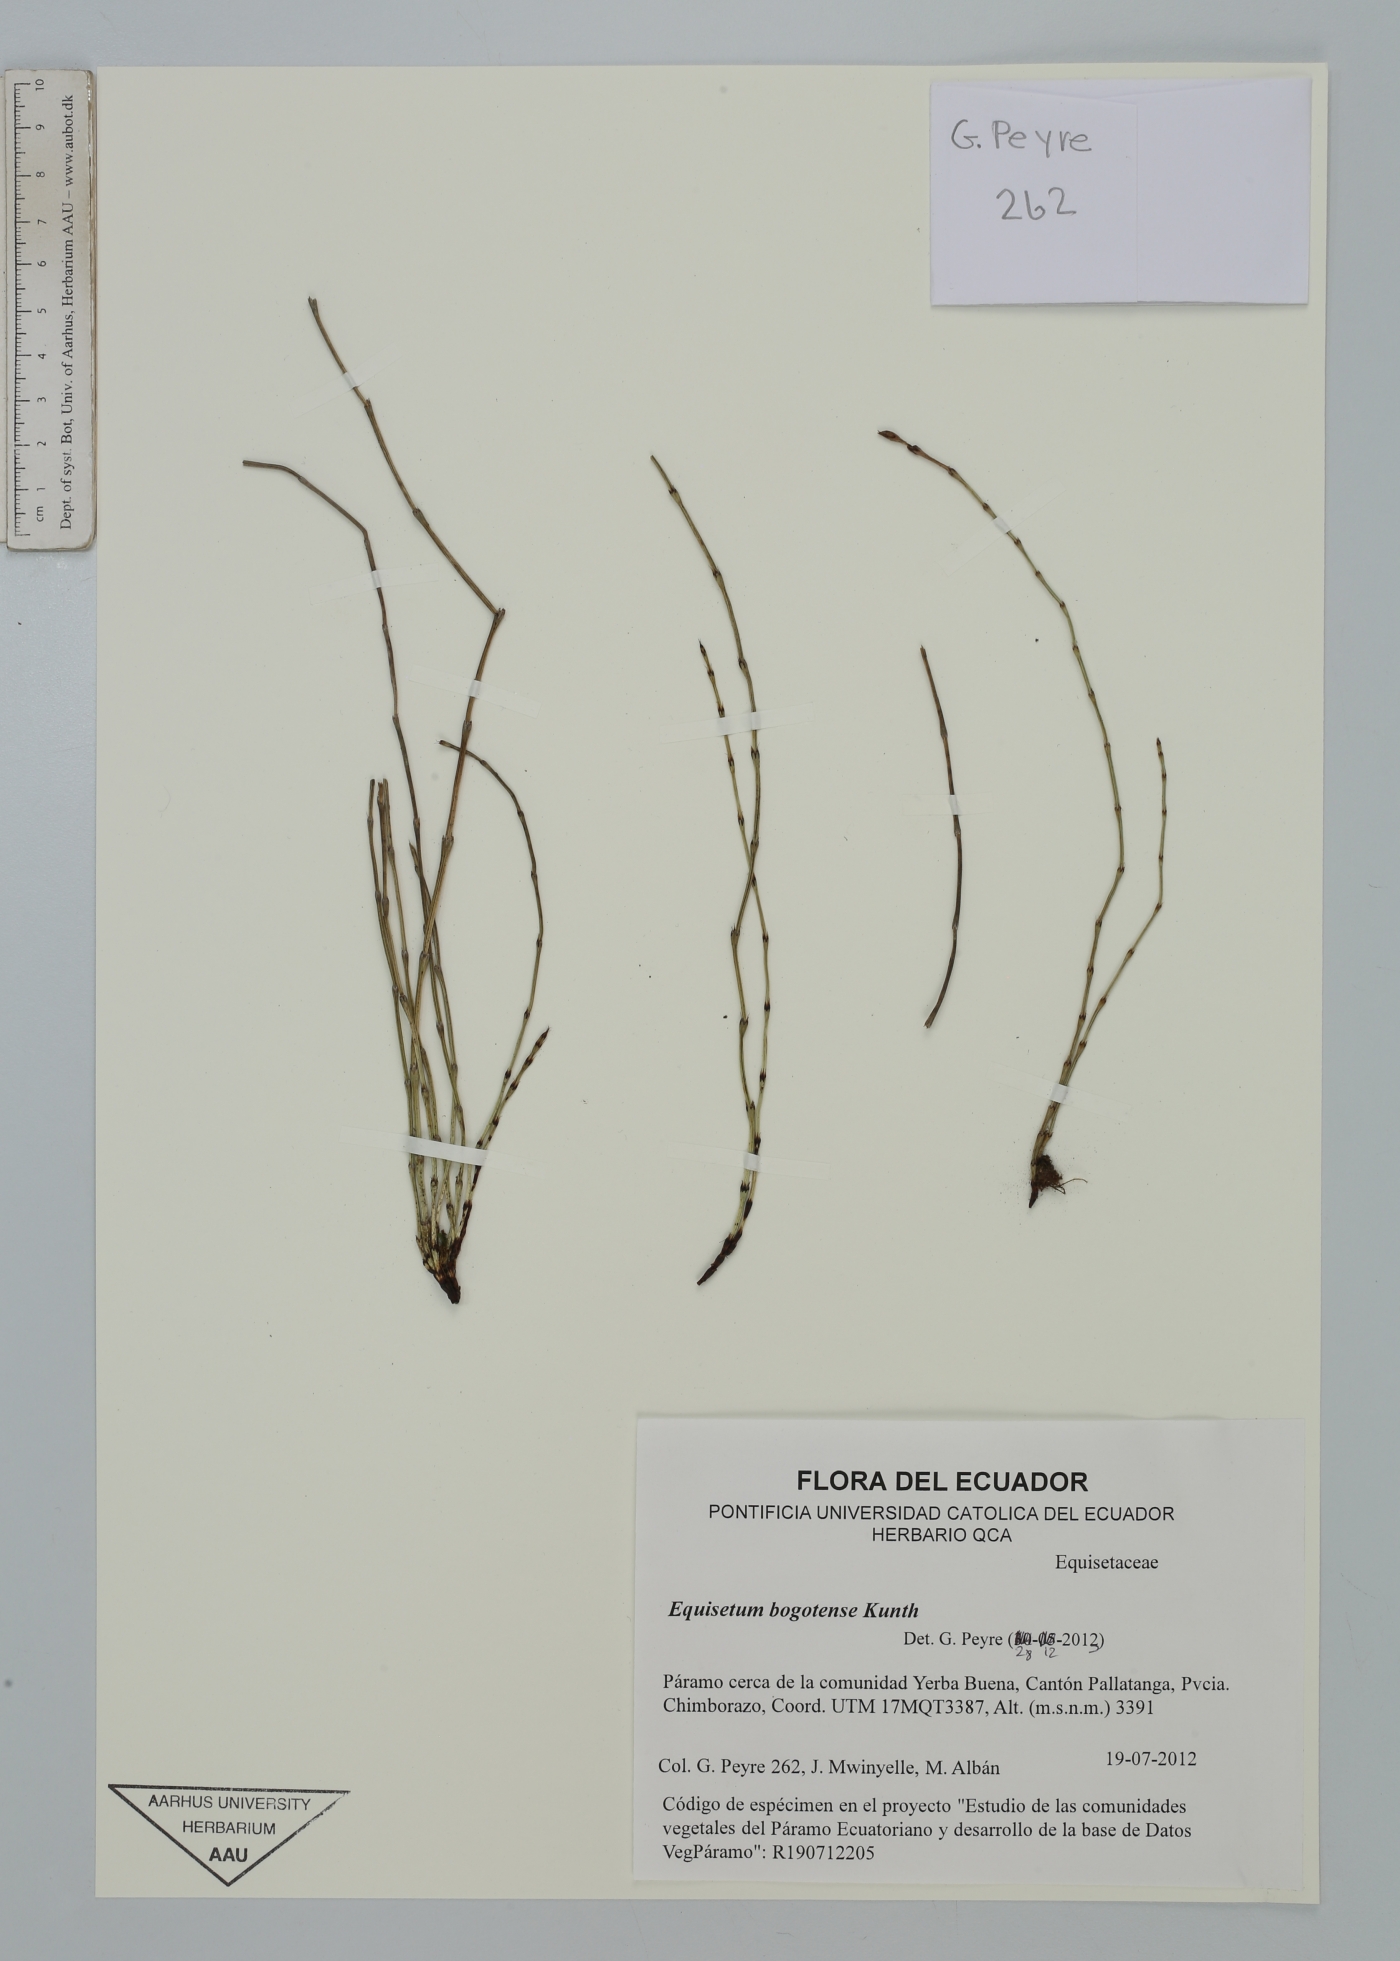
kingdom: Plantae
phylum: Tracheophyta
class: Polypodiopsida
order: Equisetales
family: Equisetaceae
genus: Equisetum
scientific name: Equisetum bogotense
